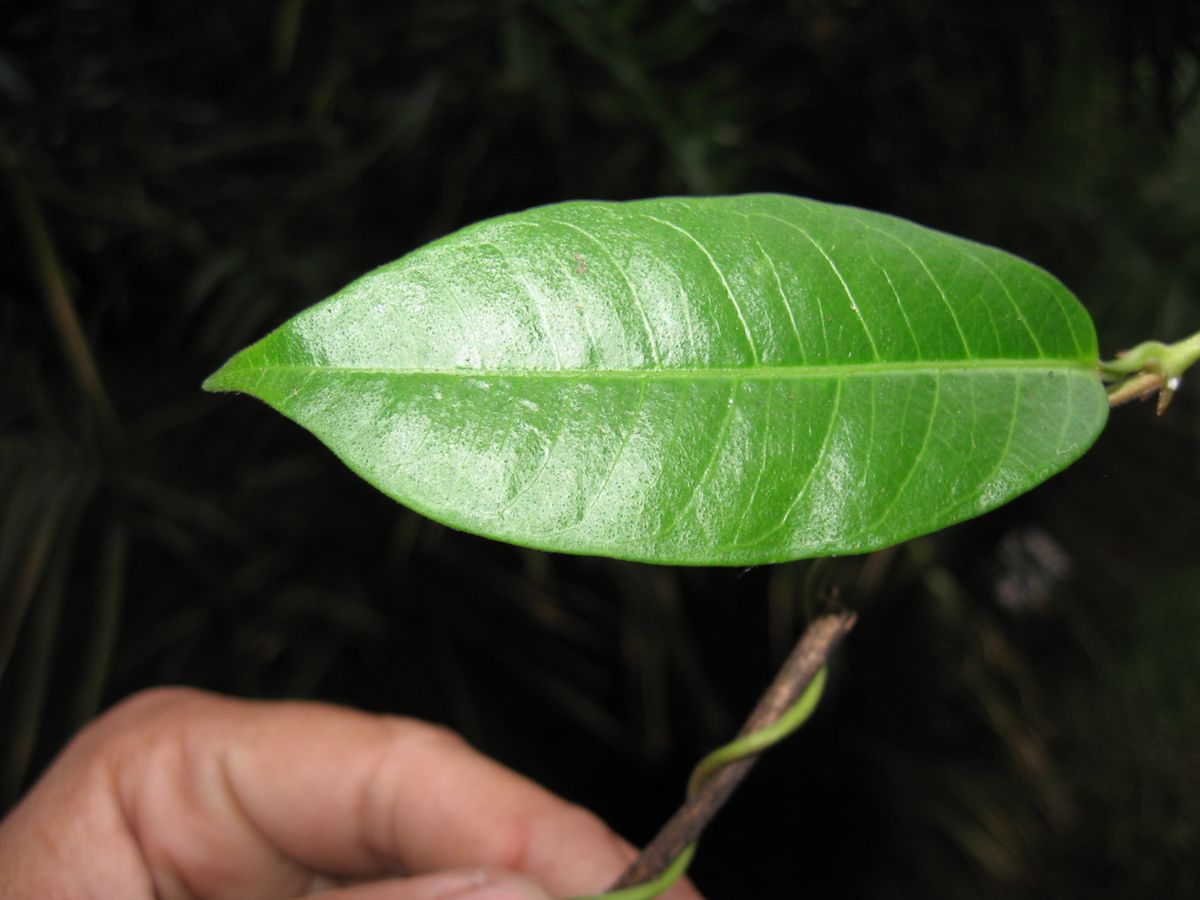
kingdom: Plantae
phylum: Tracheophyta
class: Magnoliopsida
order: Gentianales
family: Apocynaceae
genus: Mandevilla
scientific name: Mandevilla boliviensis
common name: White dipladenia
